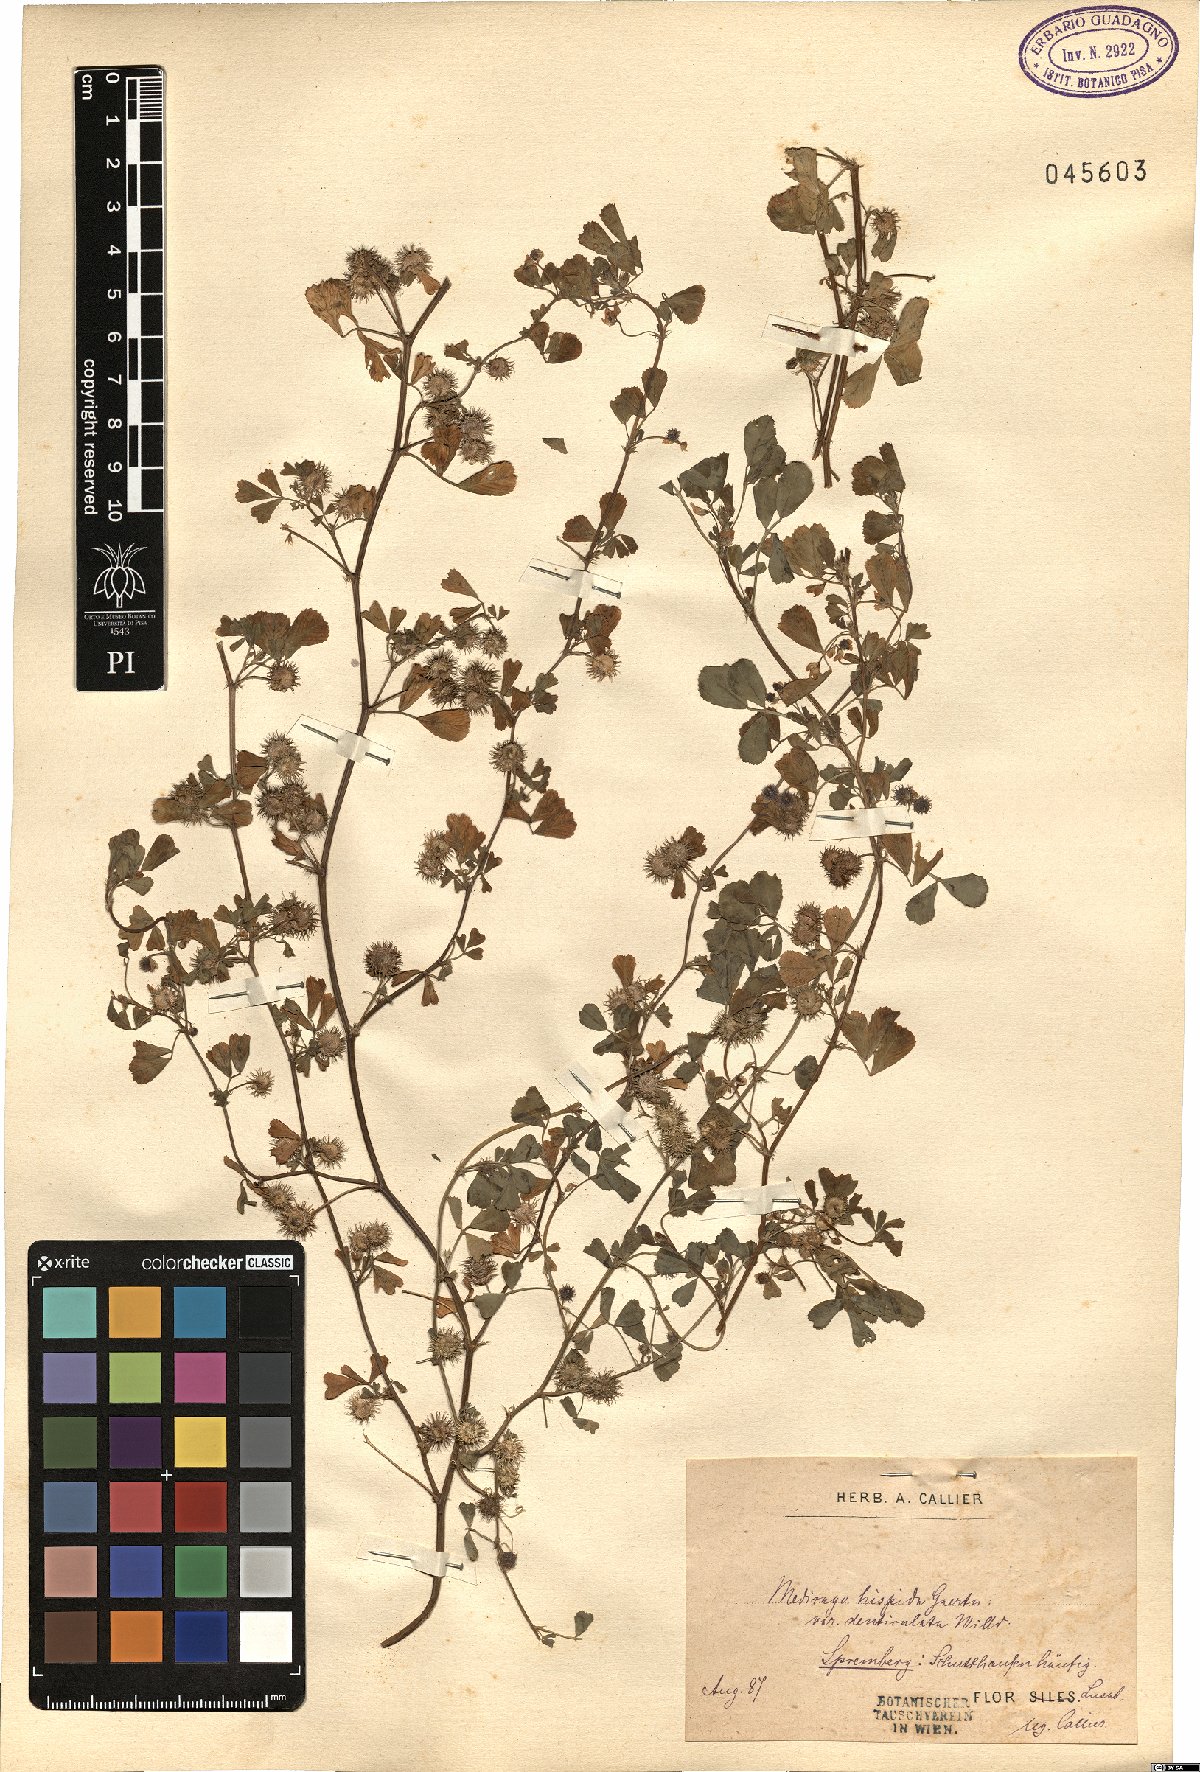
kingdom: Plantae
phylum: Tracheophyta
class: Magnoliopsida
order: Fabales
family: Fabaceae
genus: Medicago
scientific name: Medicago polymorpha
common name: Burclover
